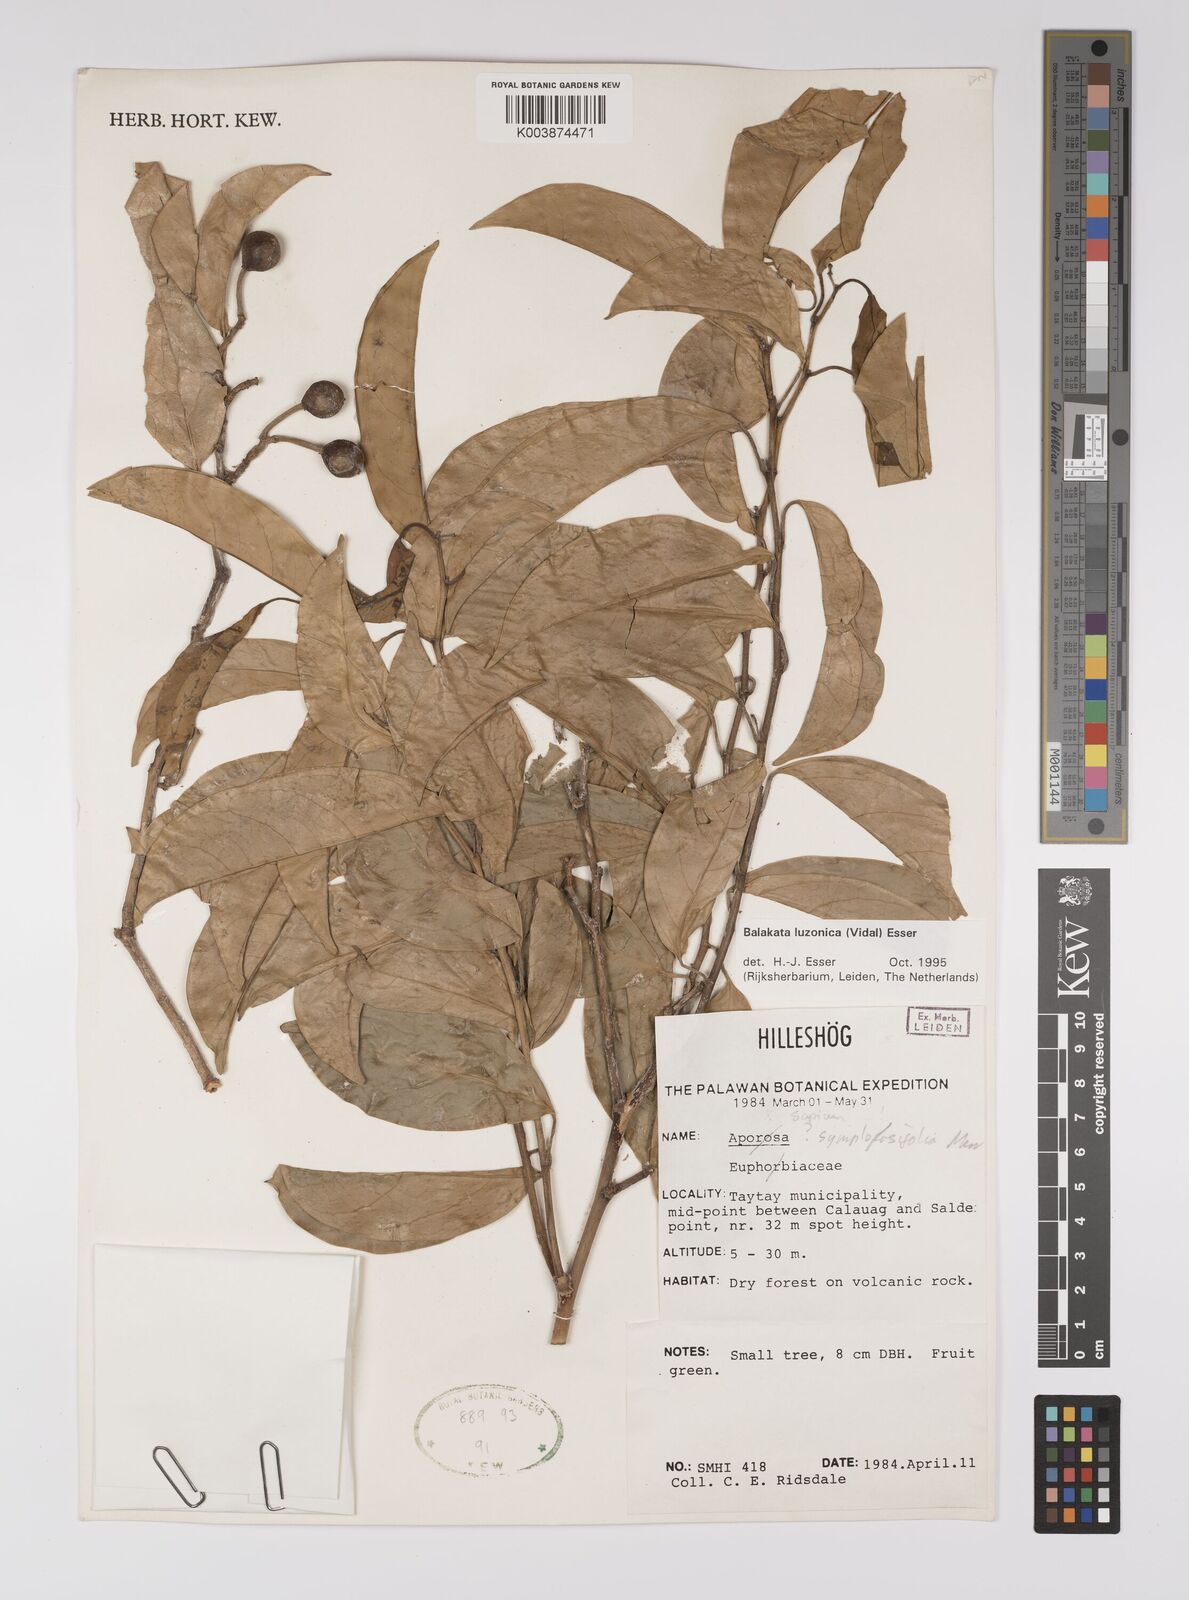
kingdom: Plantae
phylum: Tracheophyta
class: Magnoliopsida
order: Malpighiales
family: Euphorbiaceae
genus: Balakata
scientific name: Balakata luzonica
